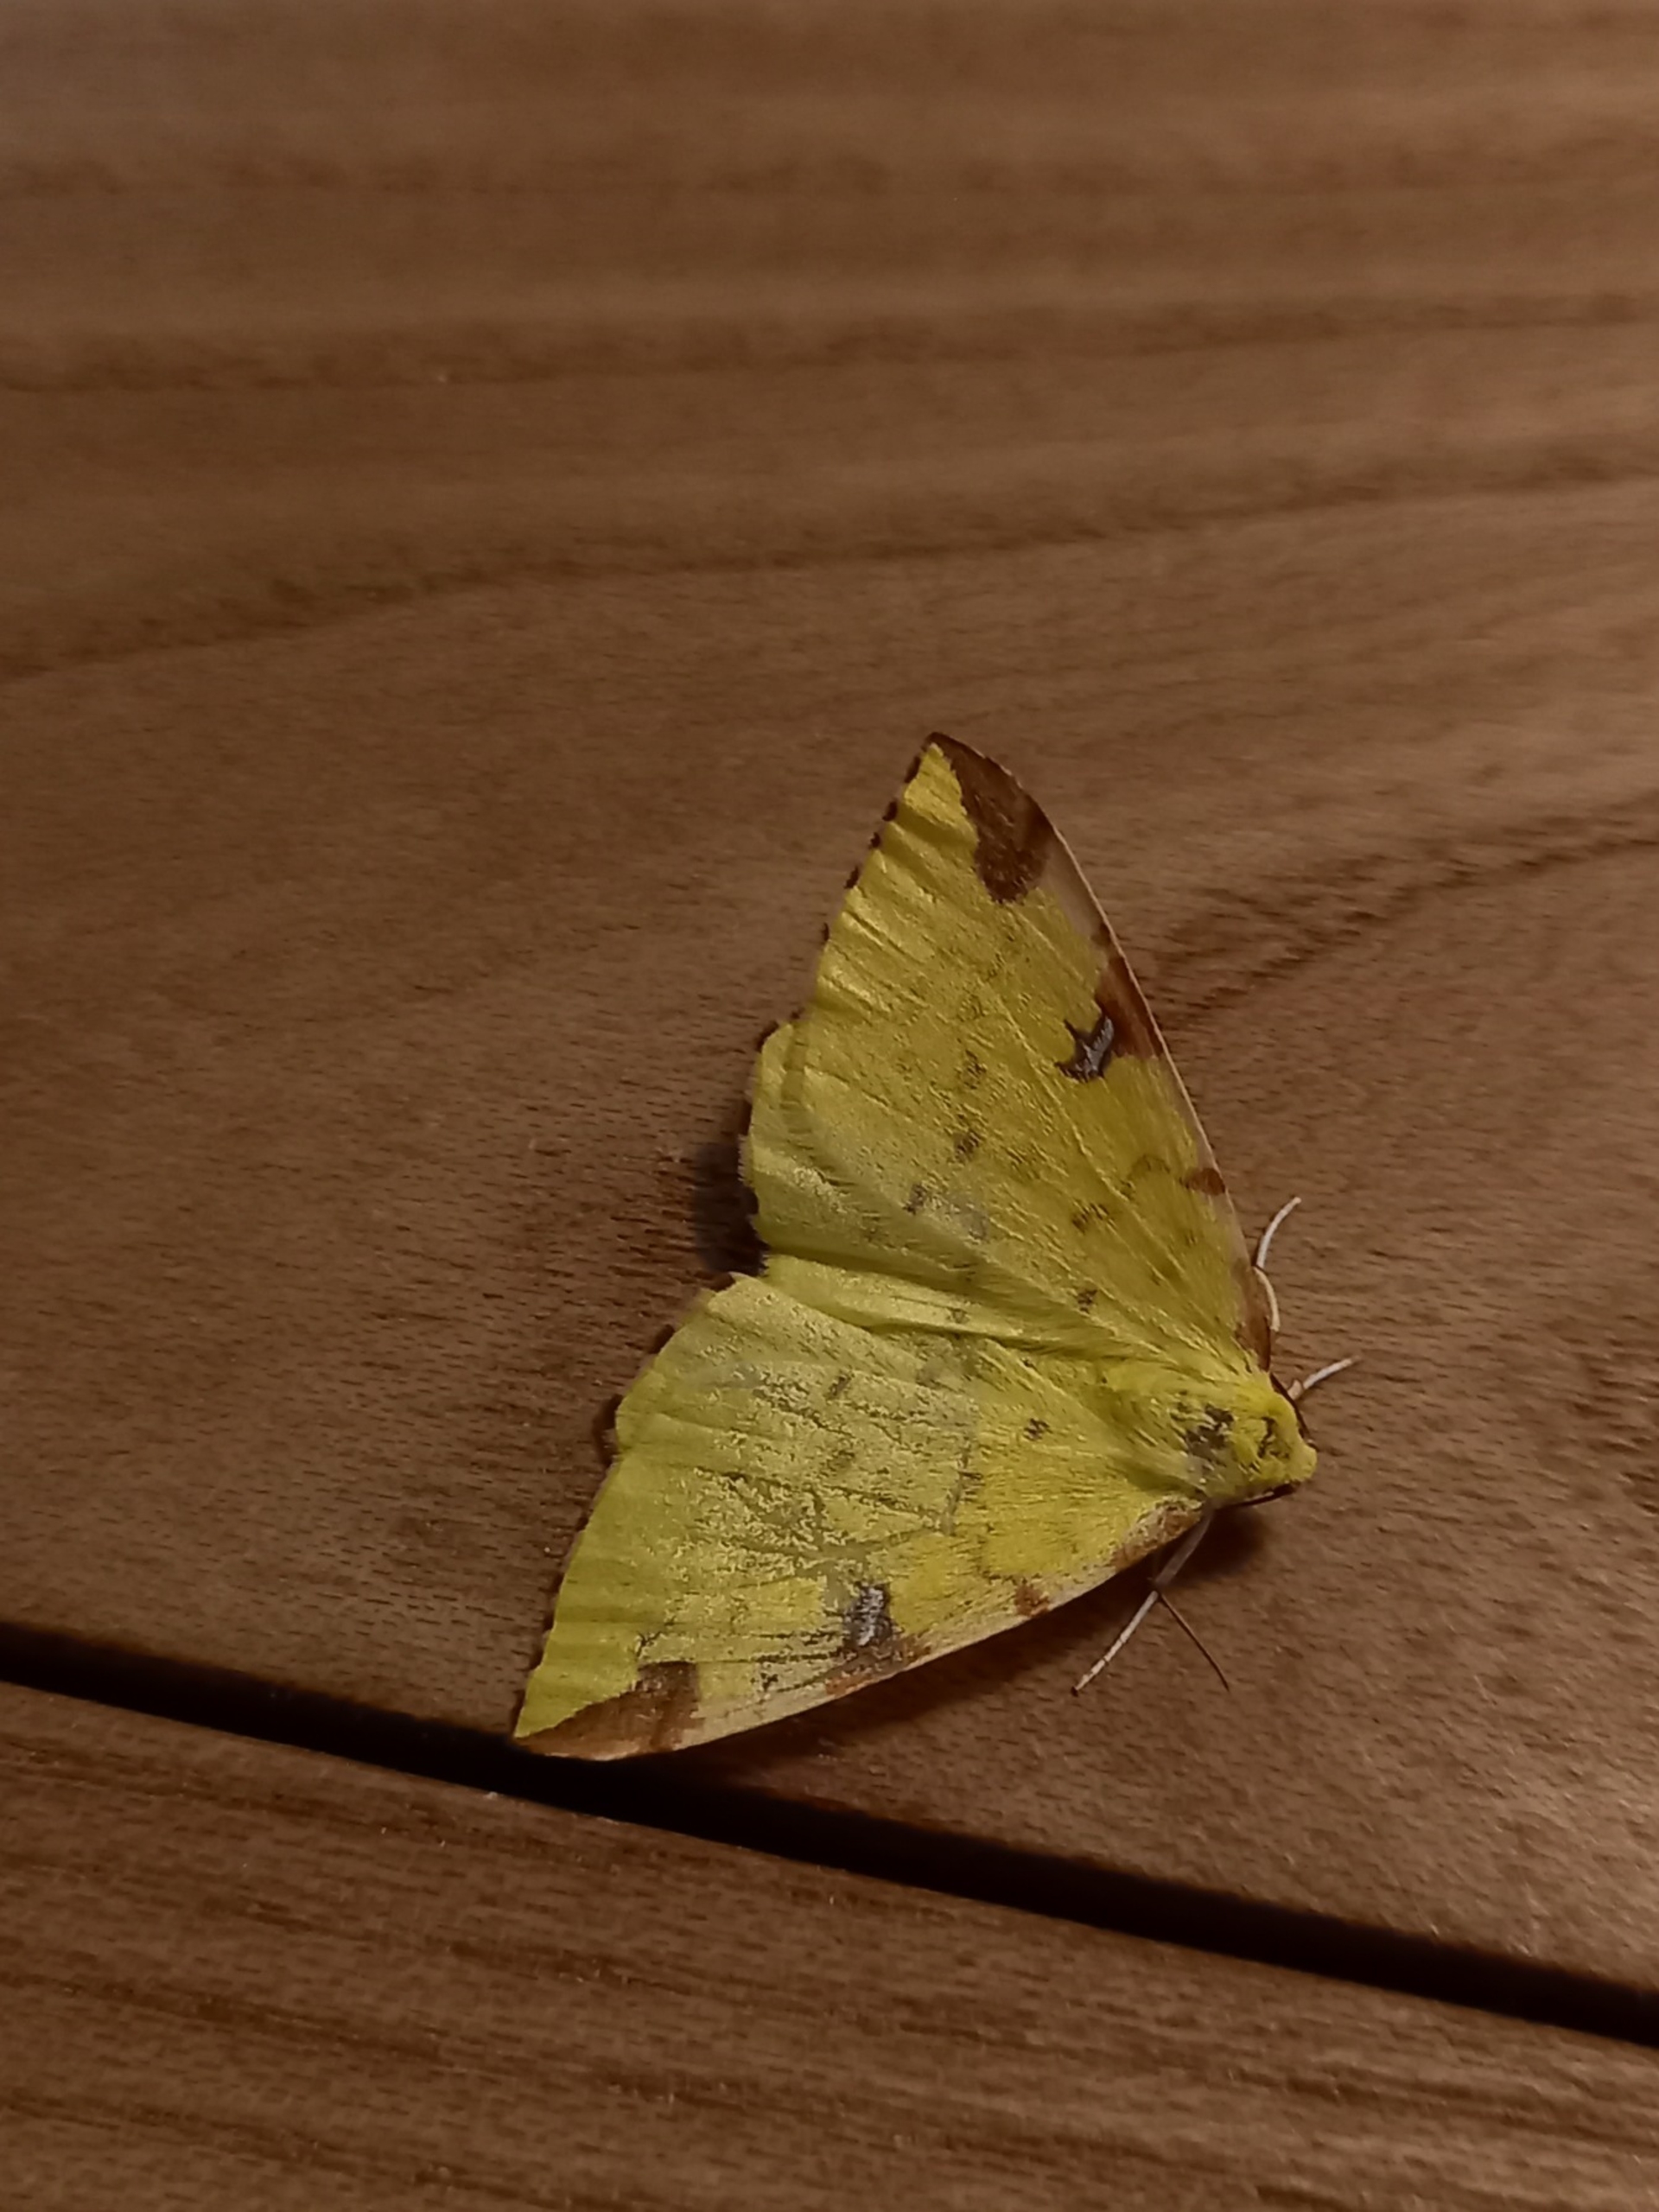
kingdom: Animalia
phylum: Arthropoda
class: Insecta
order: Lepidoptera
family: Geometridae
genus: Opisthograptis
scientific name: Opisthograptis luteolata
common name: Citronmåler
